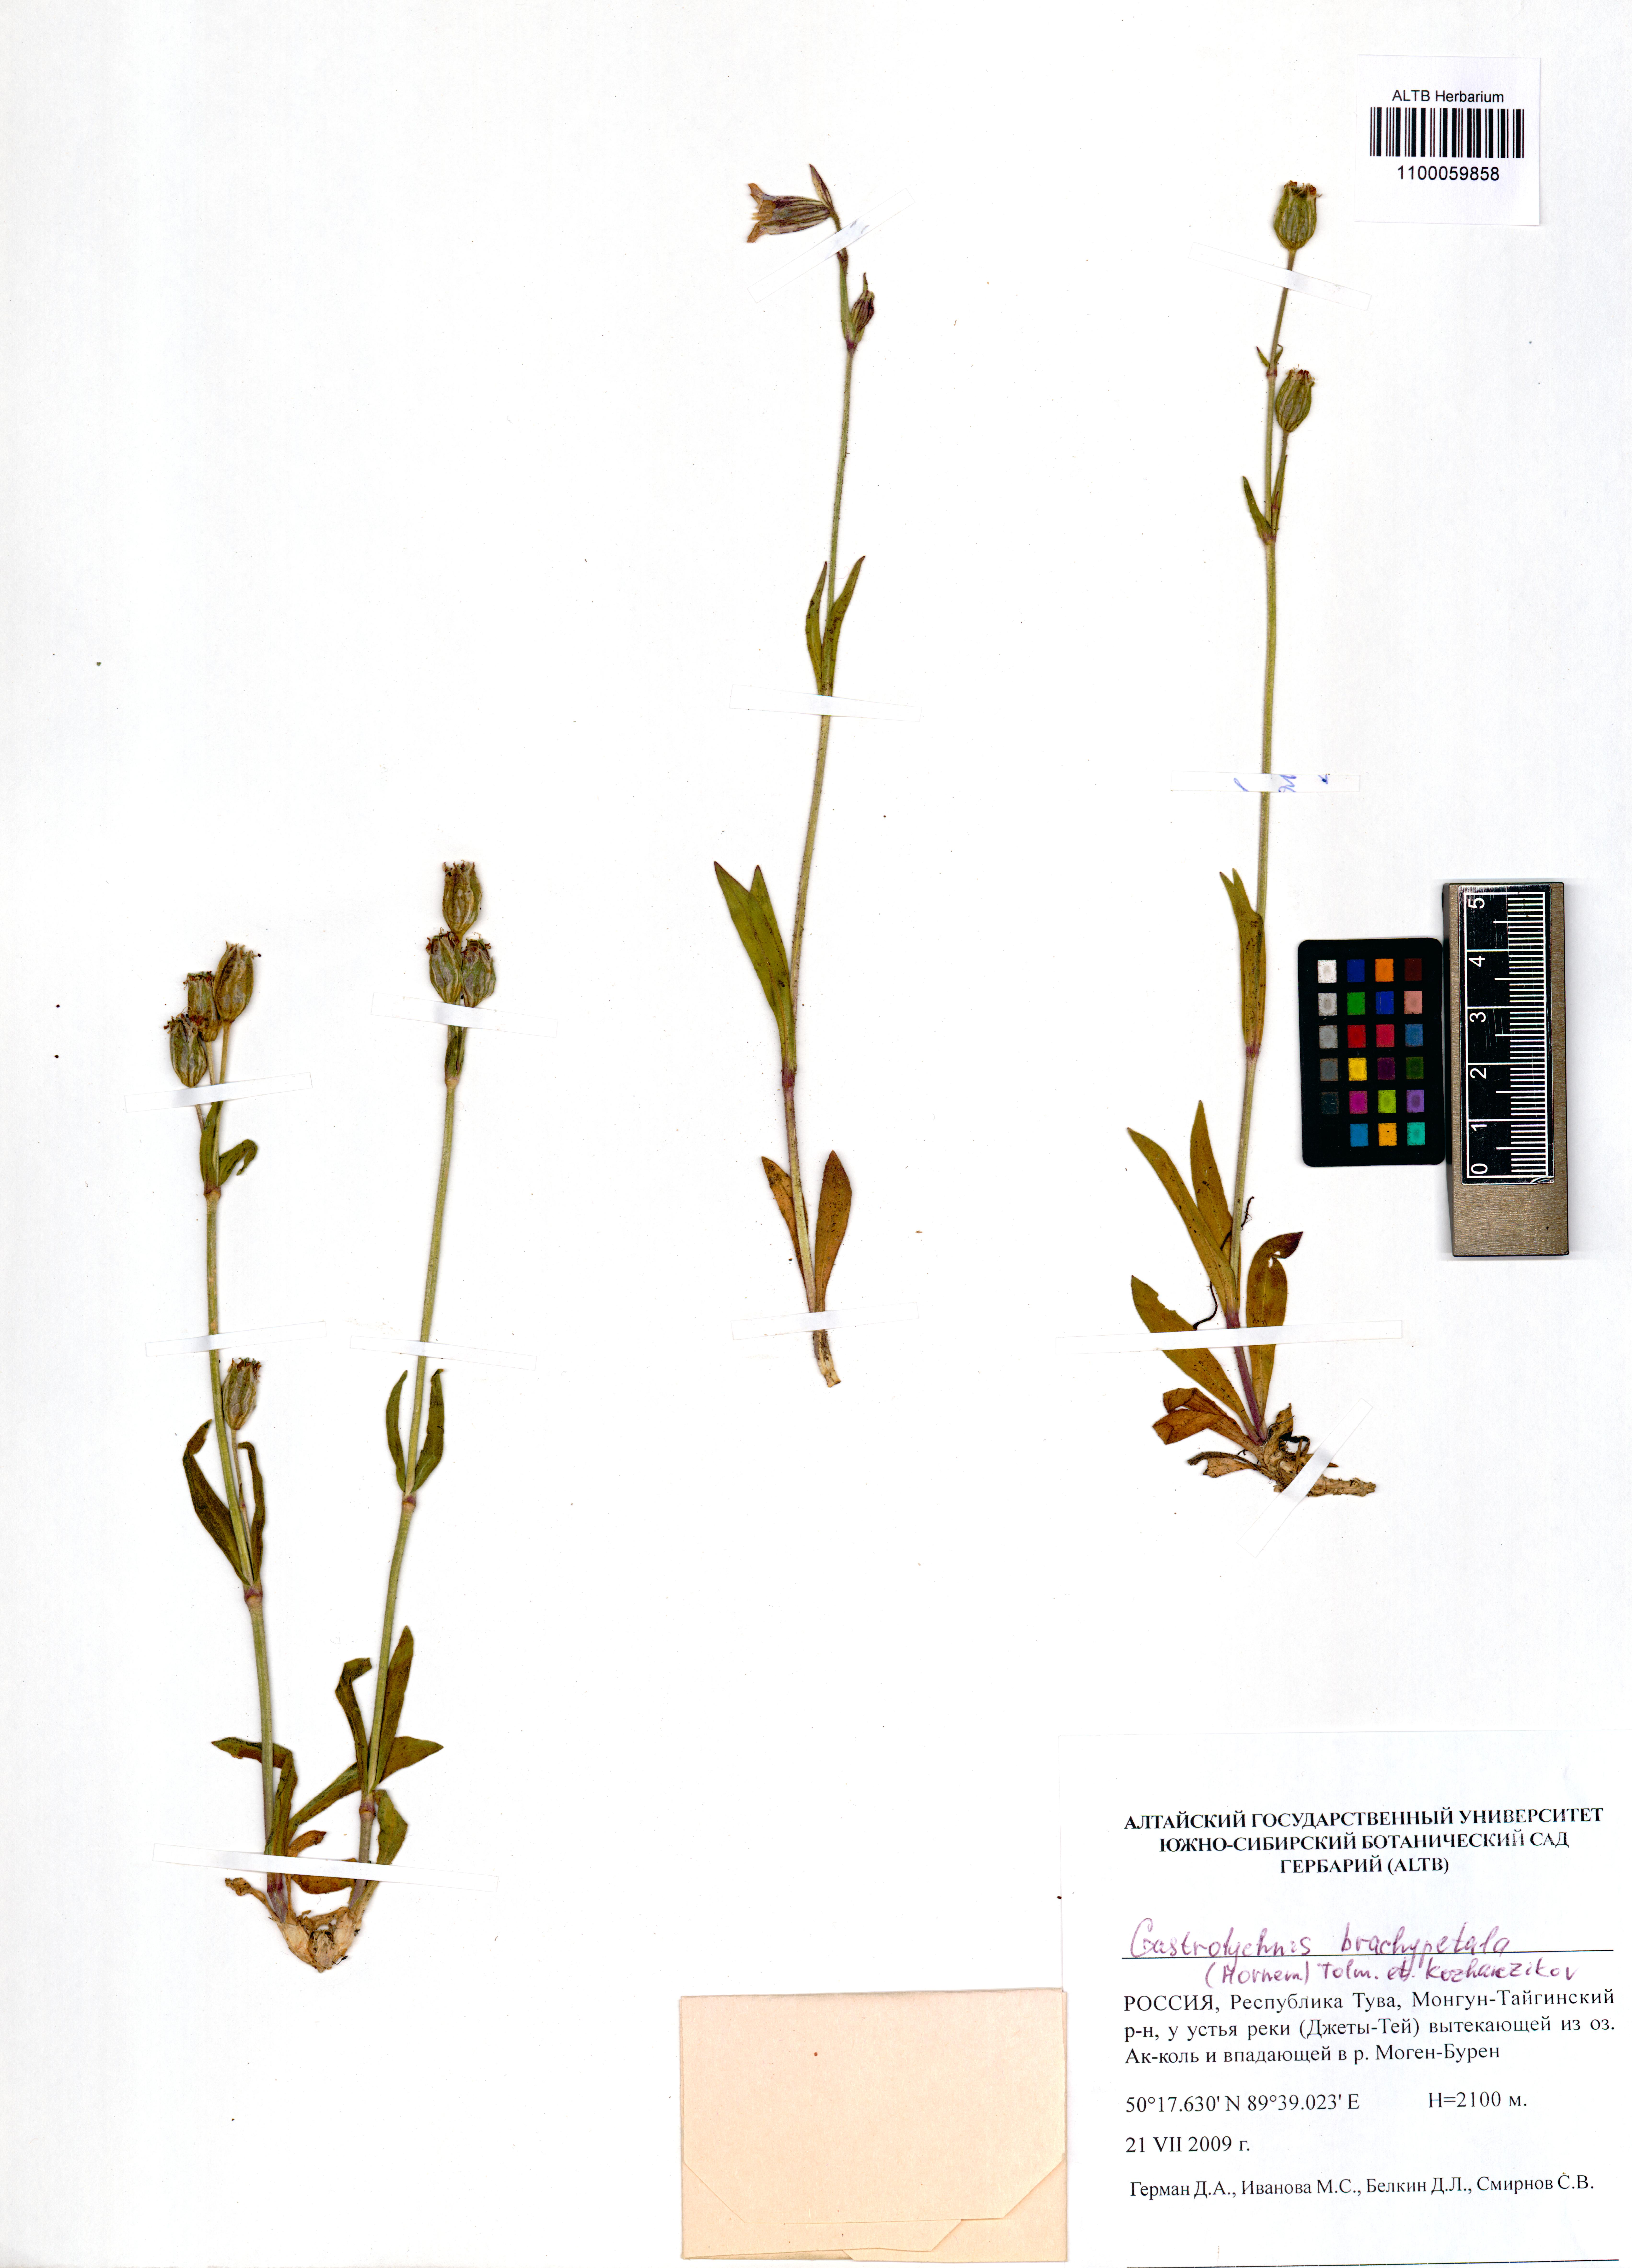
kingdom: Plantae
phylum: Tracheophyta
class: Magnoliopsida
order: Caryophyllales
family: Caryophyllaceae
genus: Silene
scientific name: Silene songarica
